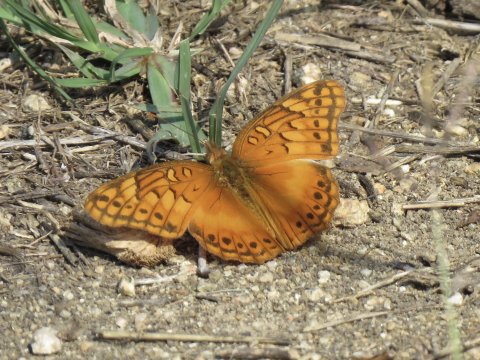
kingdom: Animalia
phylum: Arthropoda
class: Insecta
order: Lepidoptera
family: Nymphalidae
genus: Euptoieta
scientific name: Euptoieta hegesia
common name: Mexican Fritillary
